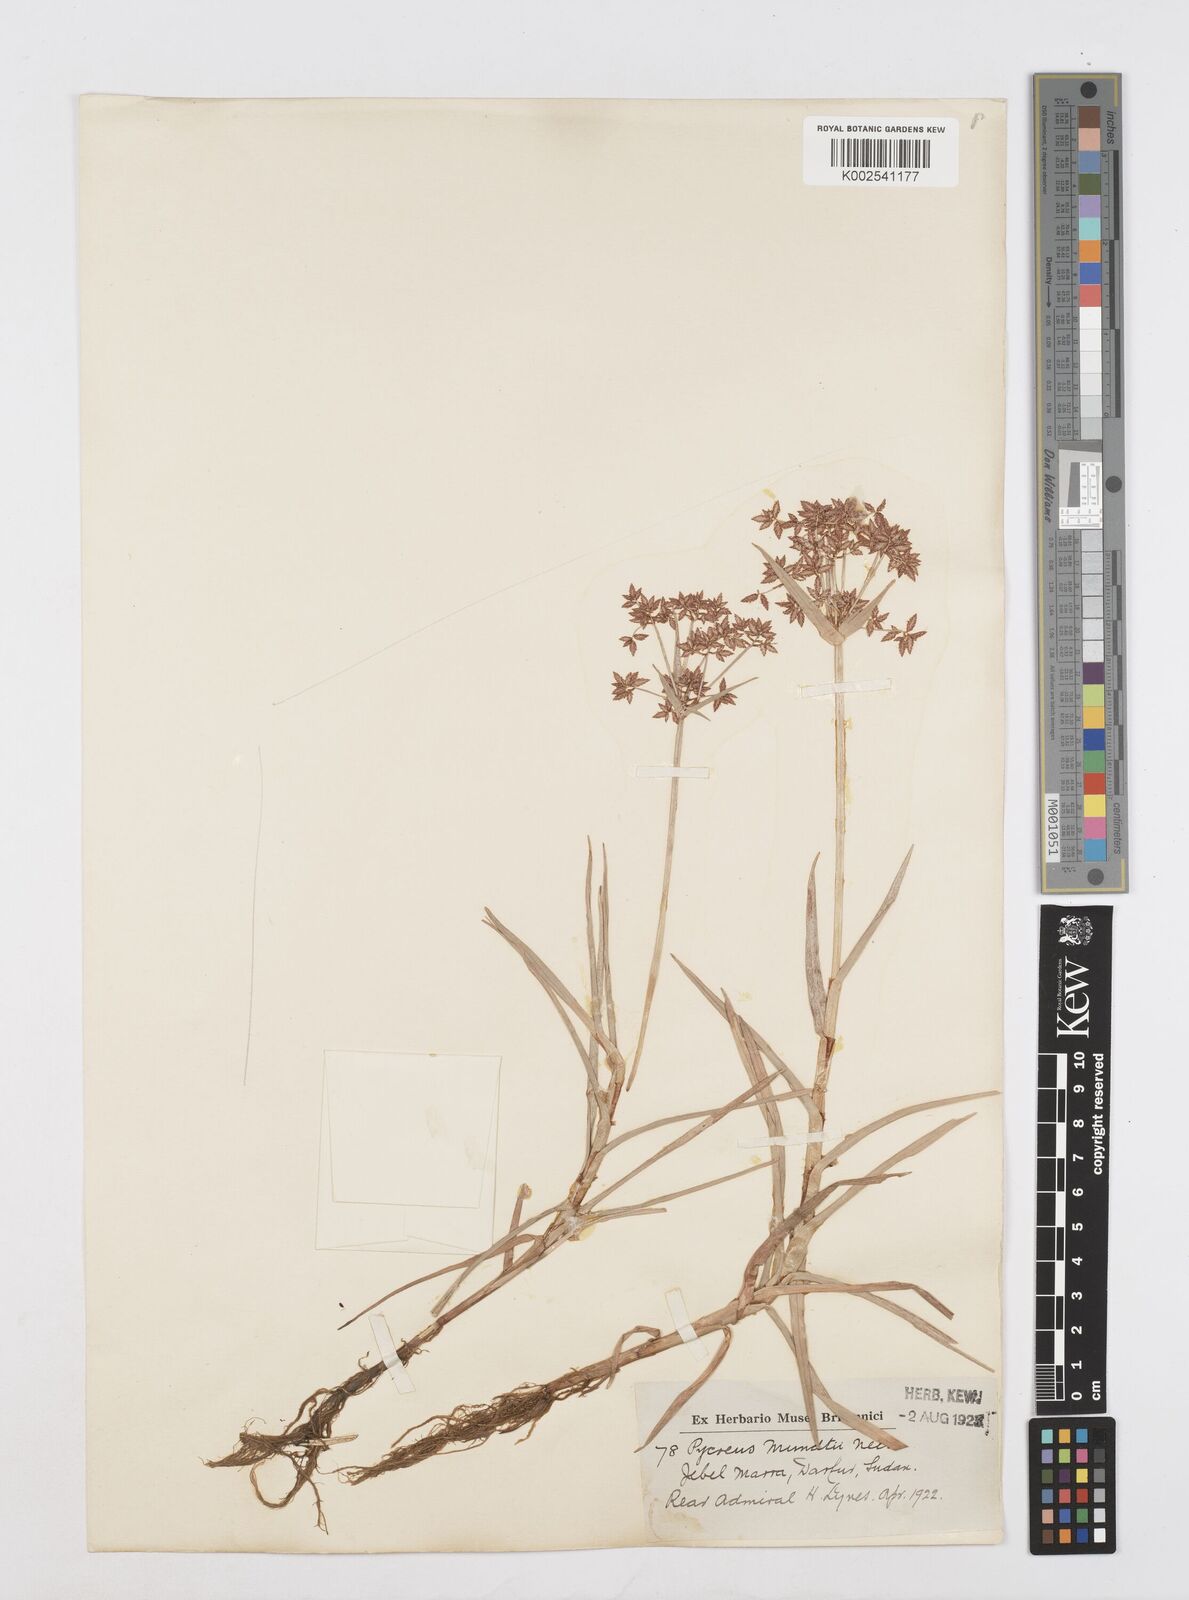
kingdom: Plantae
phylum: Tracheophyta
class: Liliopsida
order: Poales
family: Cyperaceae
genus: Cyperus
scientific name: Cyperus mundii
